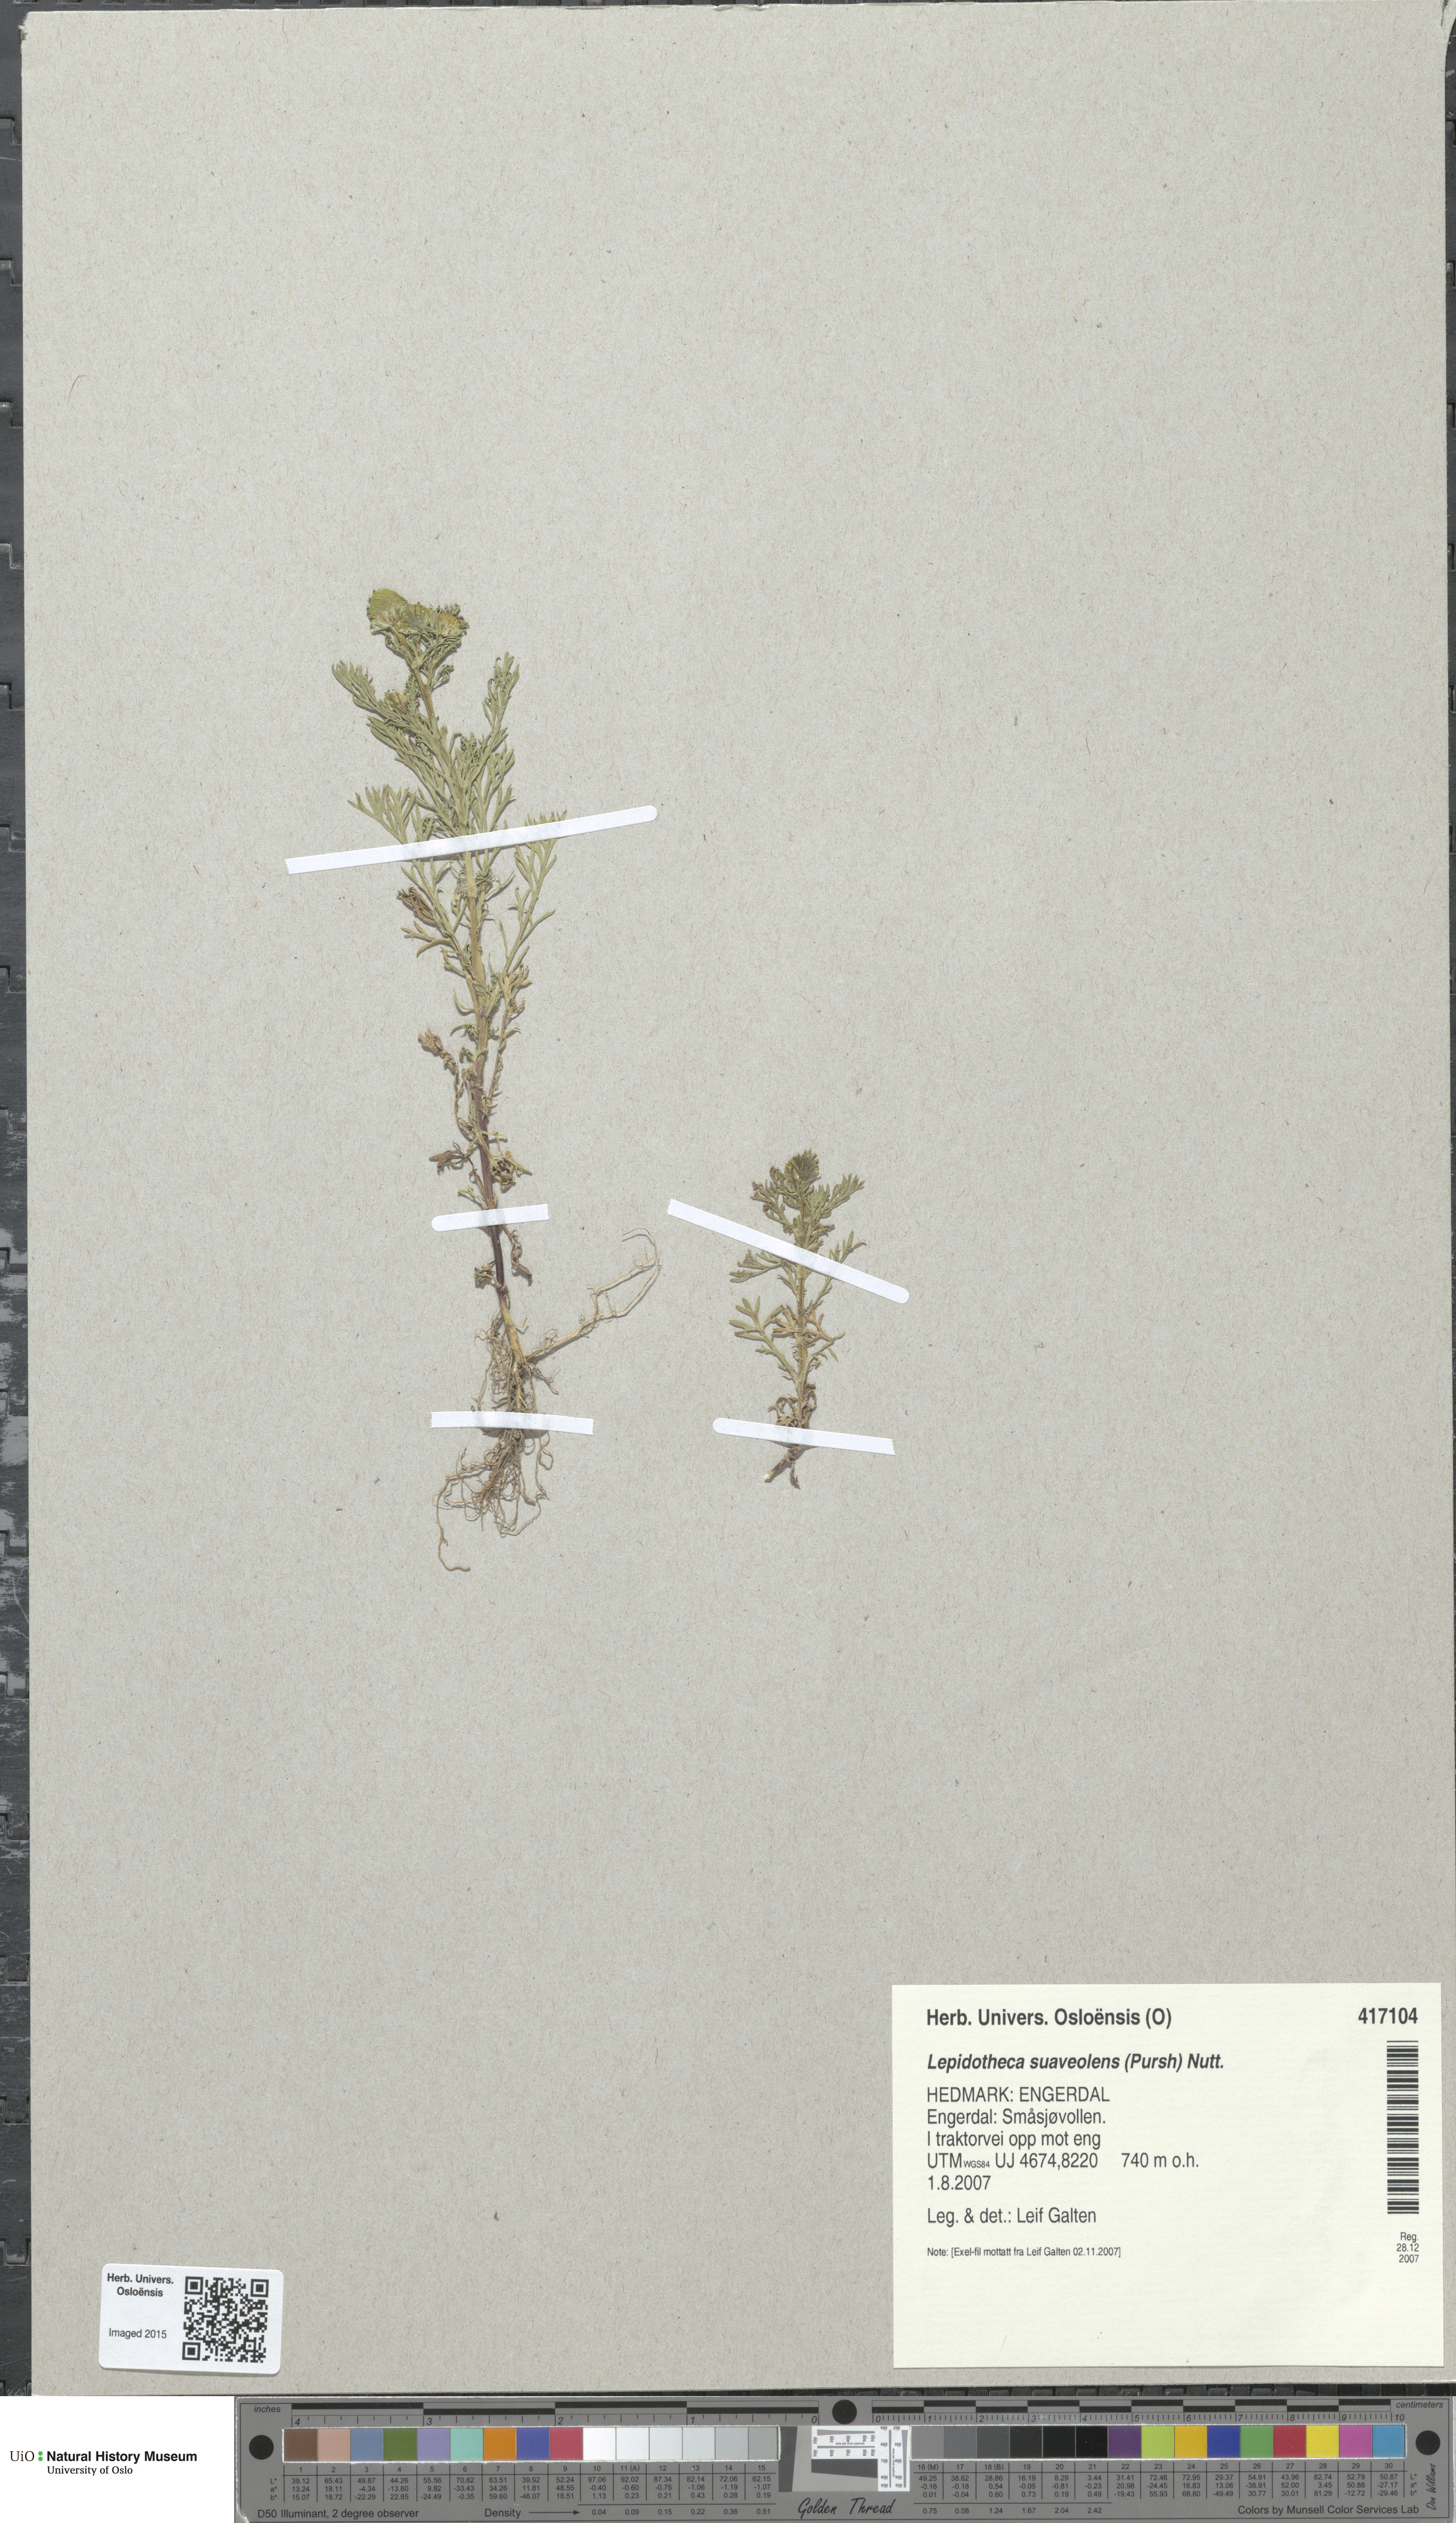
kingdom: Plantae
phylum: Tracheophyta
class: Magnoliopsida
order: Asterales
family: Asteraceae
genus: Matricaria
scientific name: Matricaria discoidea
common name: Disc mayweed
